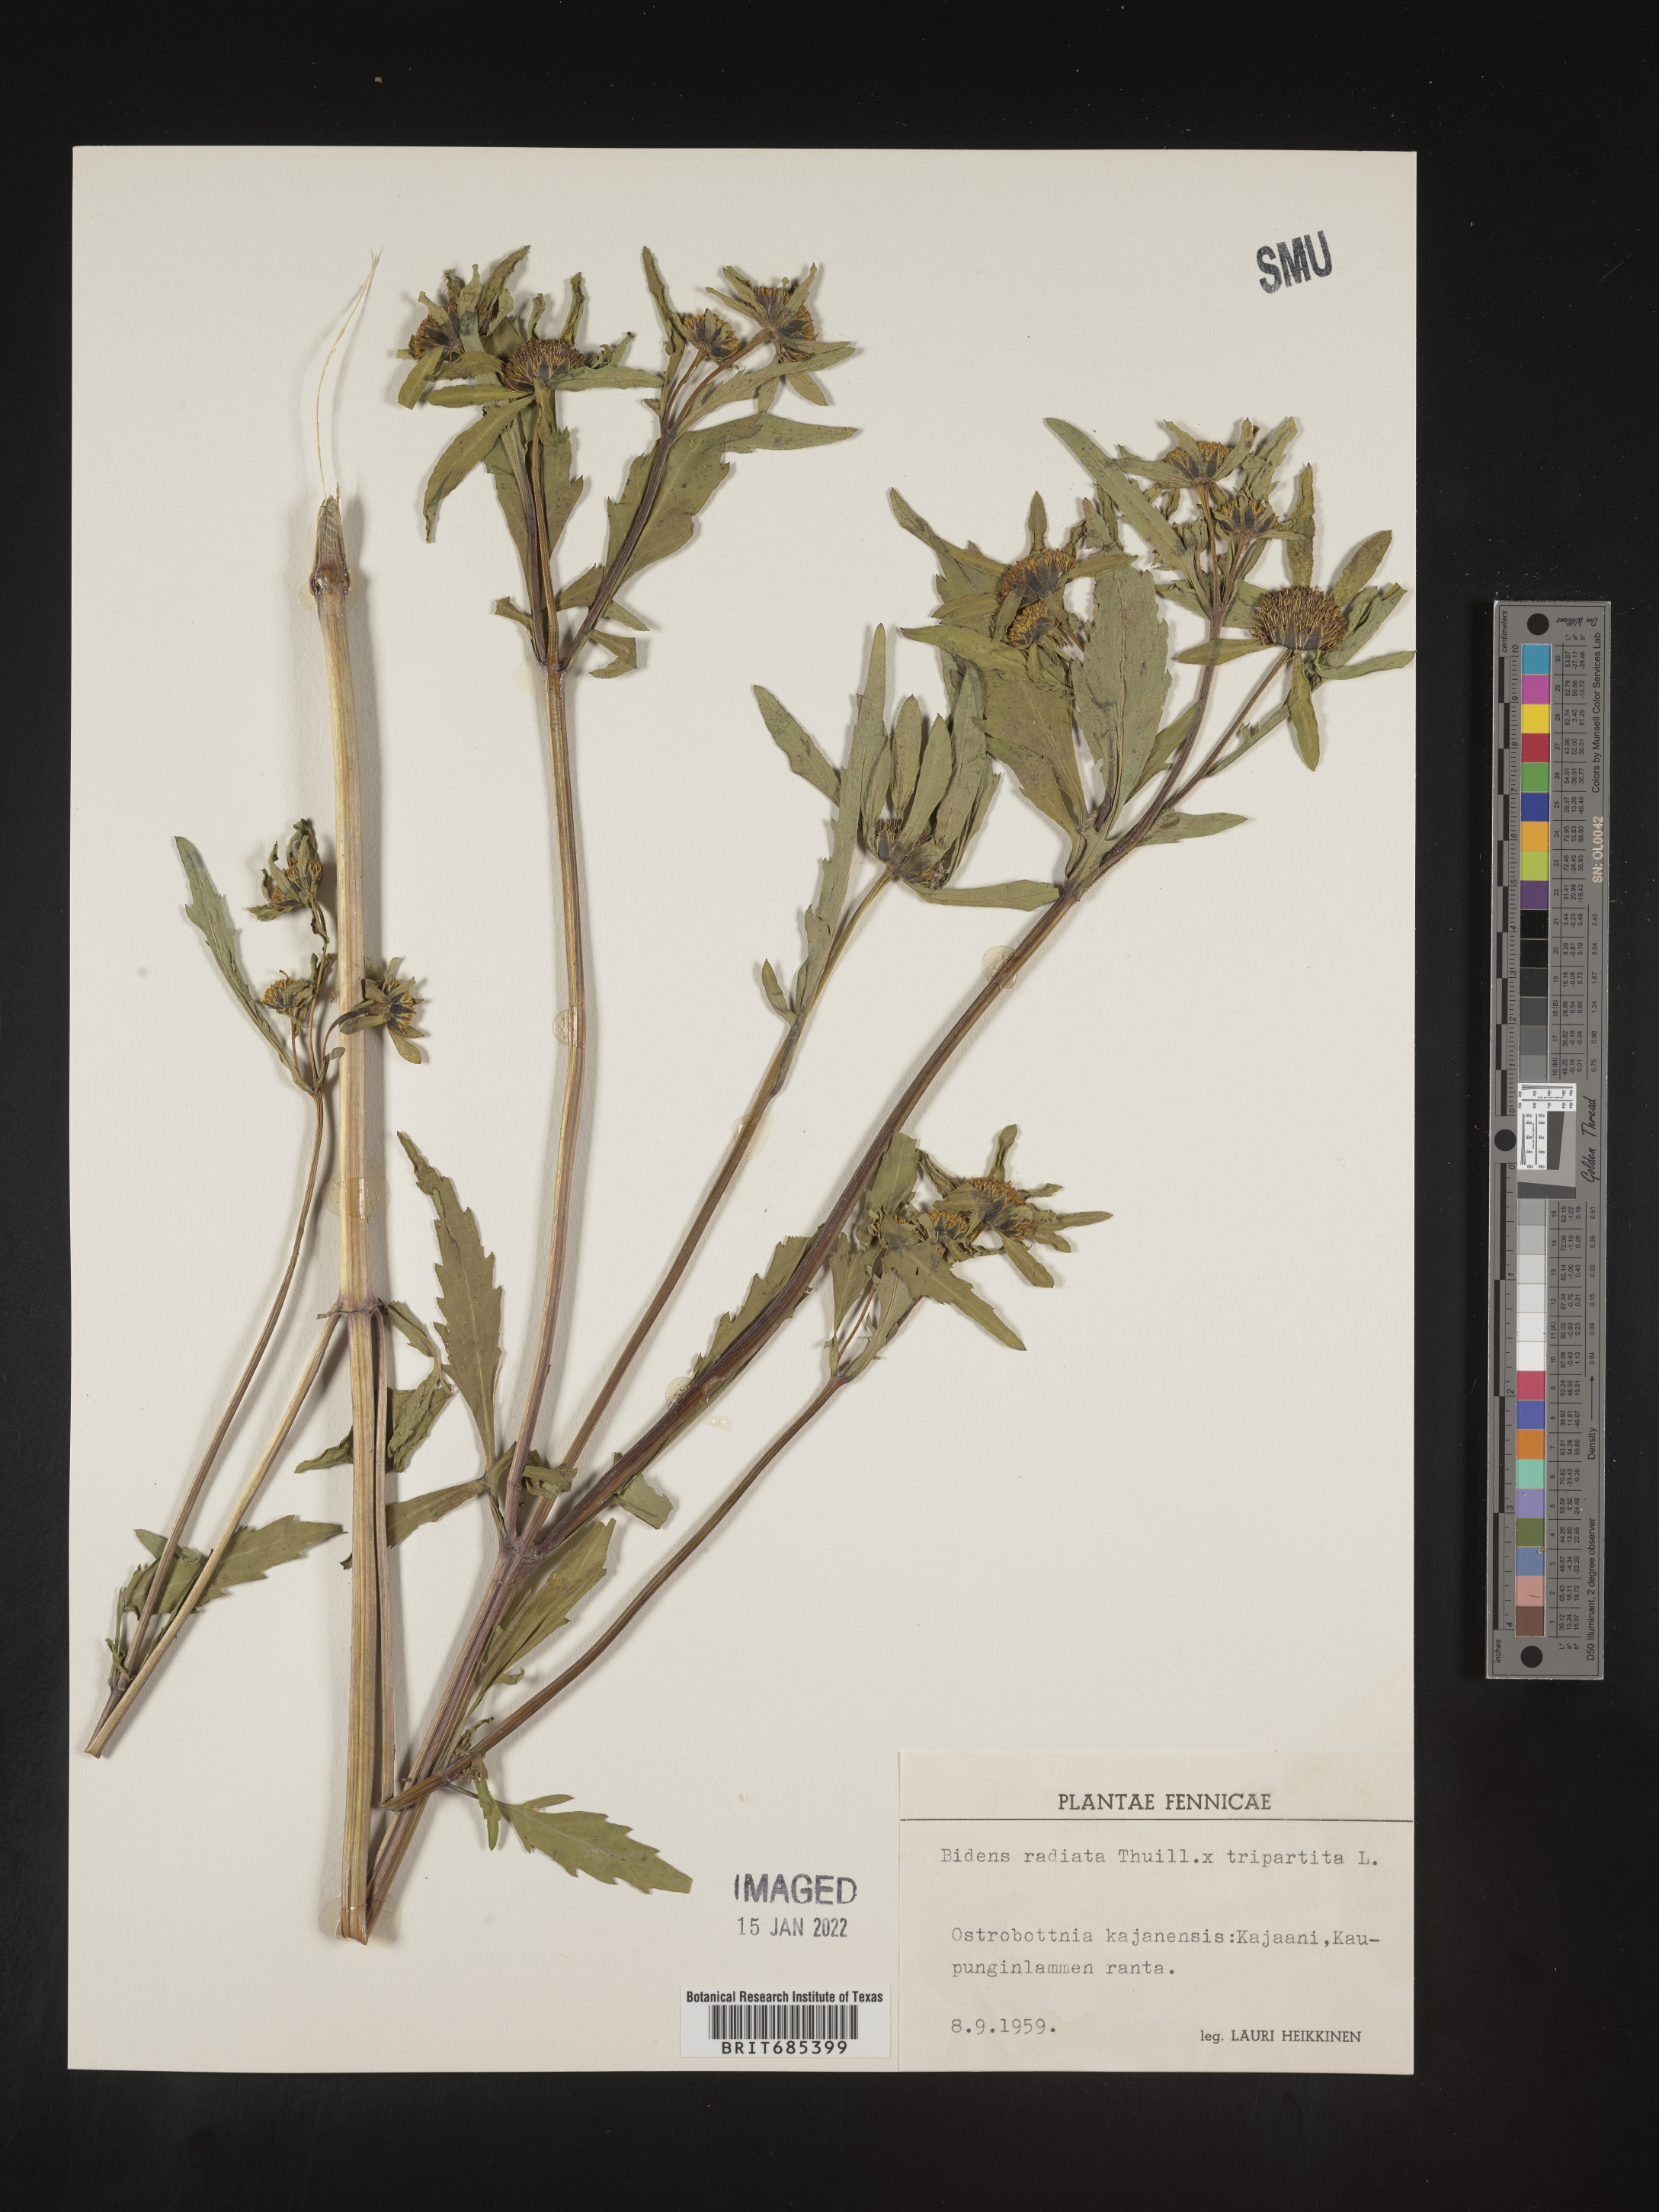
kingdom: Plantae
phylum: Tracheophyta
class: Magnoliopsida
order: Asterales
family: Asteraceae
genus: Bidens
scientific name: Bidens
